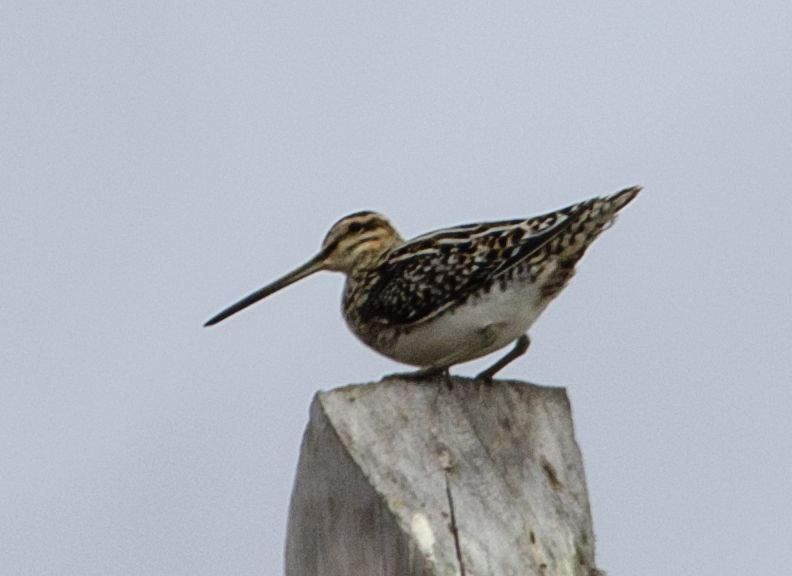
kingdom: Animalia
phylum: Chordata
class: Aves
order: Charadriiformes
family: Scolopacidae
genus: Gallinago
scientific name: Gallinago gallinago
